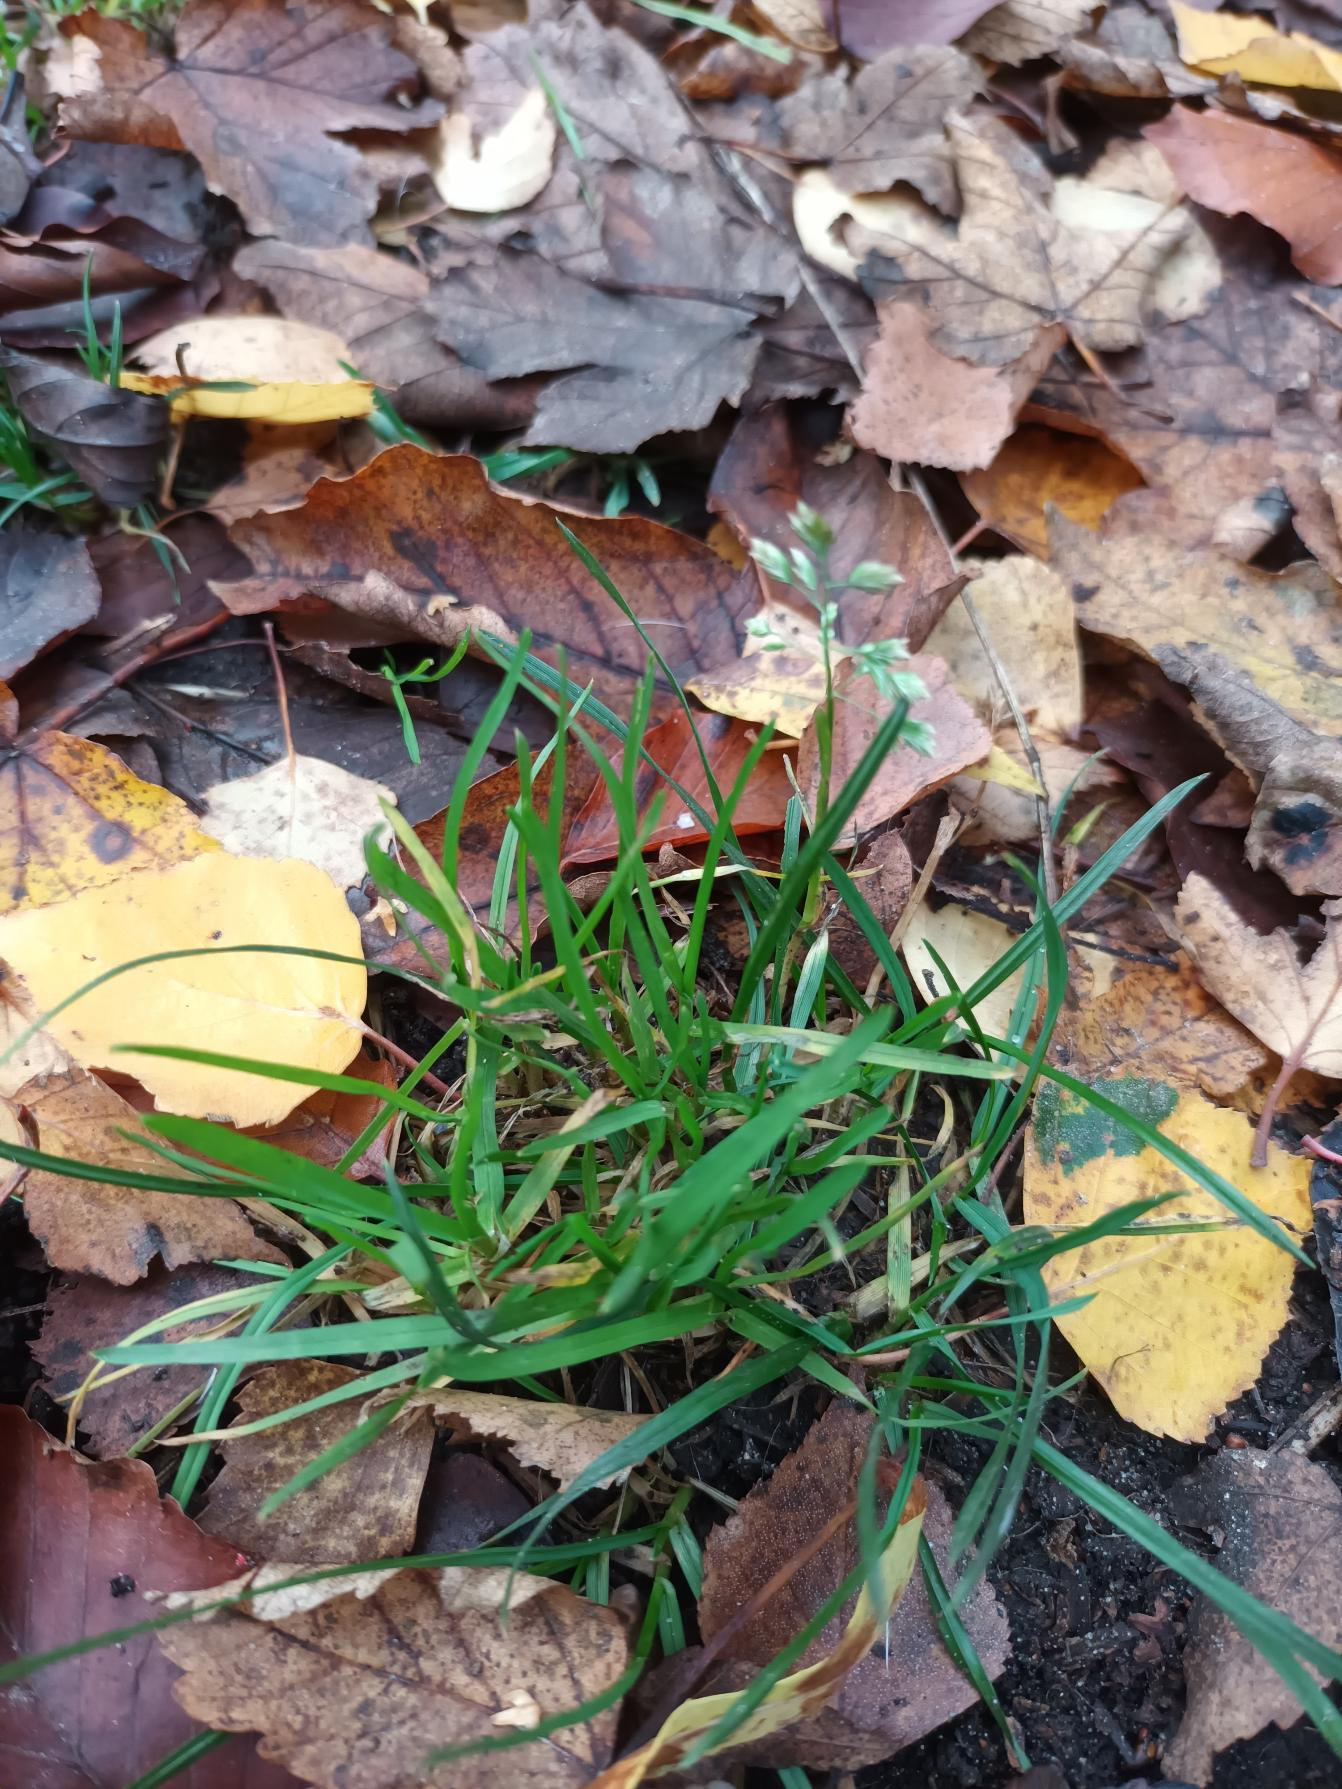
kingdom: Plantae
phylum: Tracheophyta
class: Liliopsida
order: Poales
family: Poaceae
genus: Poa
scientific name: Poa annua
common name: Enårig rapgræs
